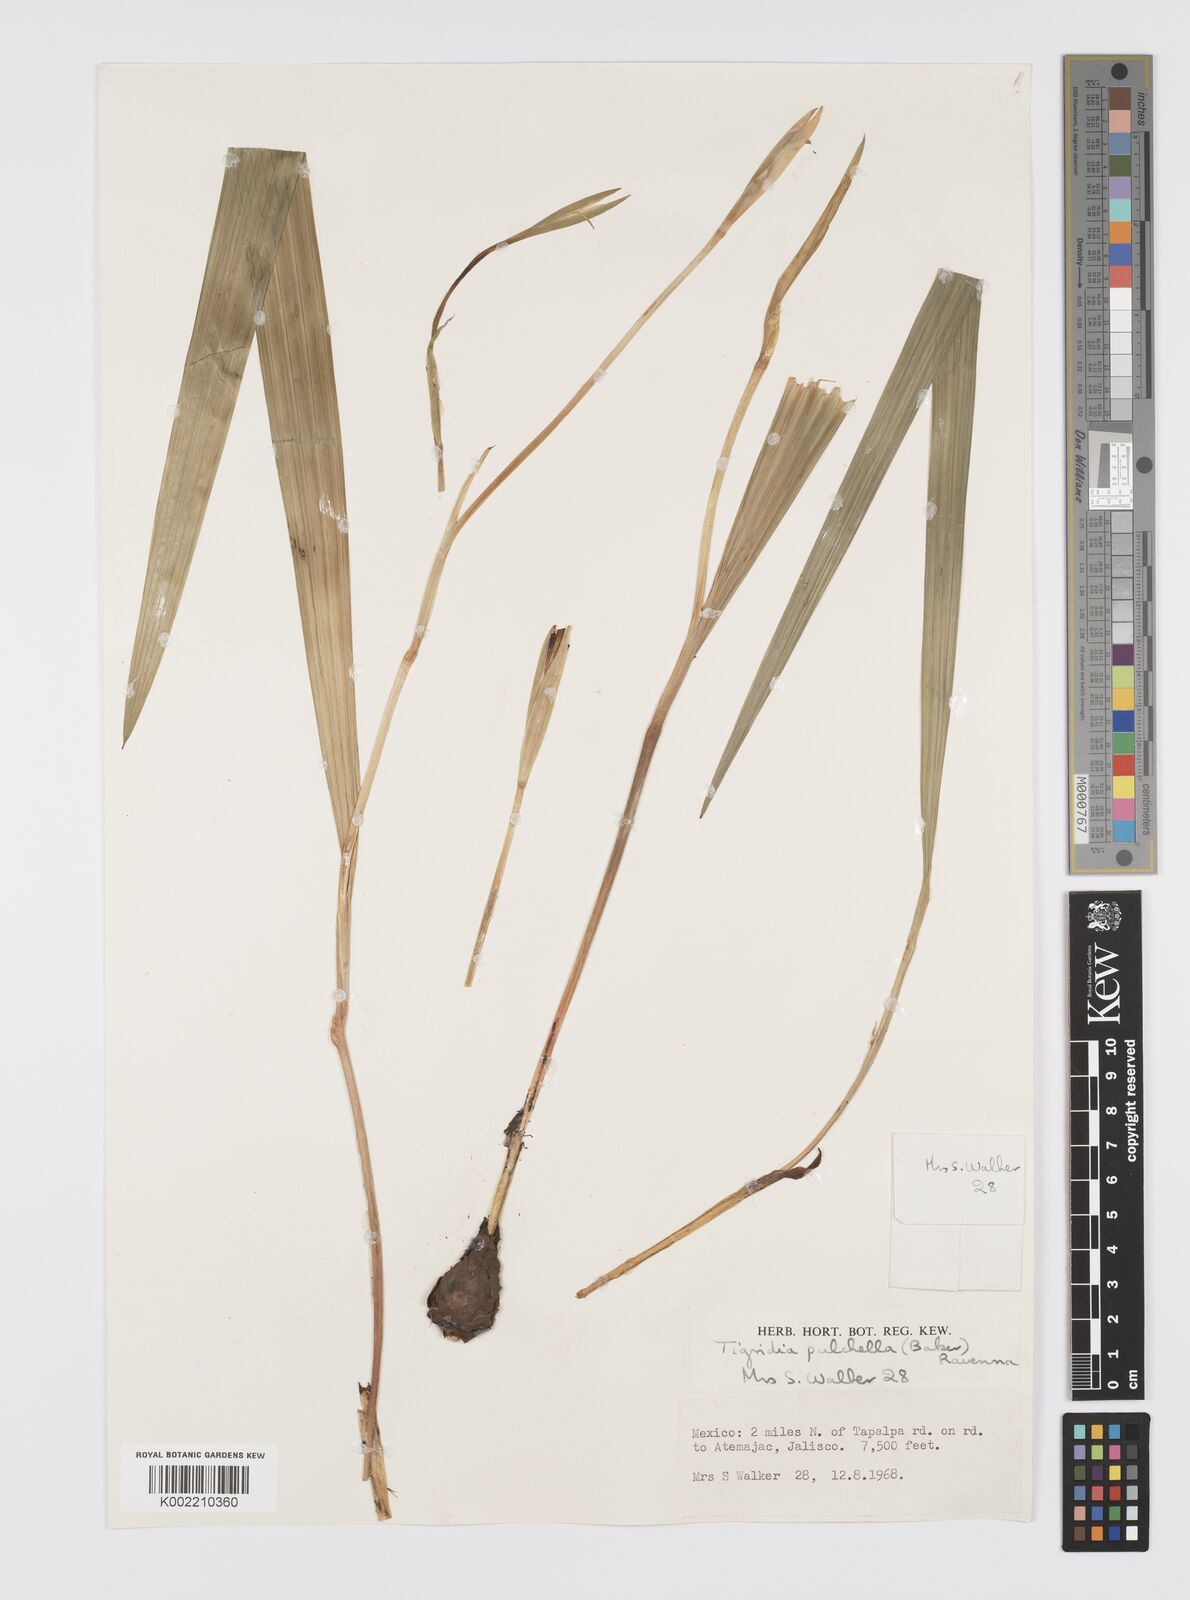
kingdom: Plantae
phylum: Tracheophyta
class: Liliopsida
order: Asparagales
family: Iridaceae
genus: Tigridia
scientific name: Tigridia pulchella
